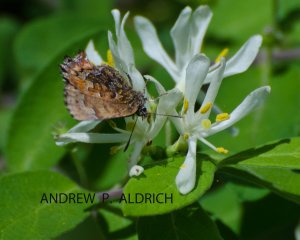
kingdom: Animalia
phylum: Arthropoda
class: Insecta
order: Lepidoptera
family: Lycaenidae
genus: Incisalia
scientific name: Incisalia niphon
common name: Eastern Pine Elfin
